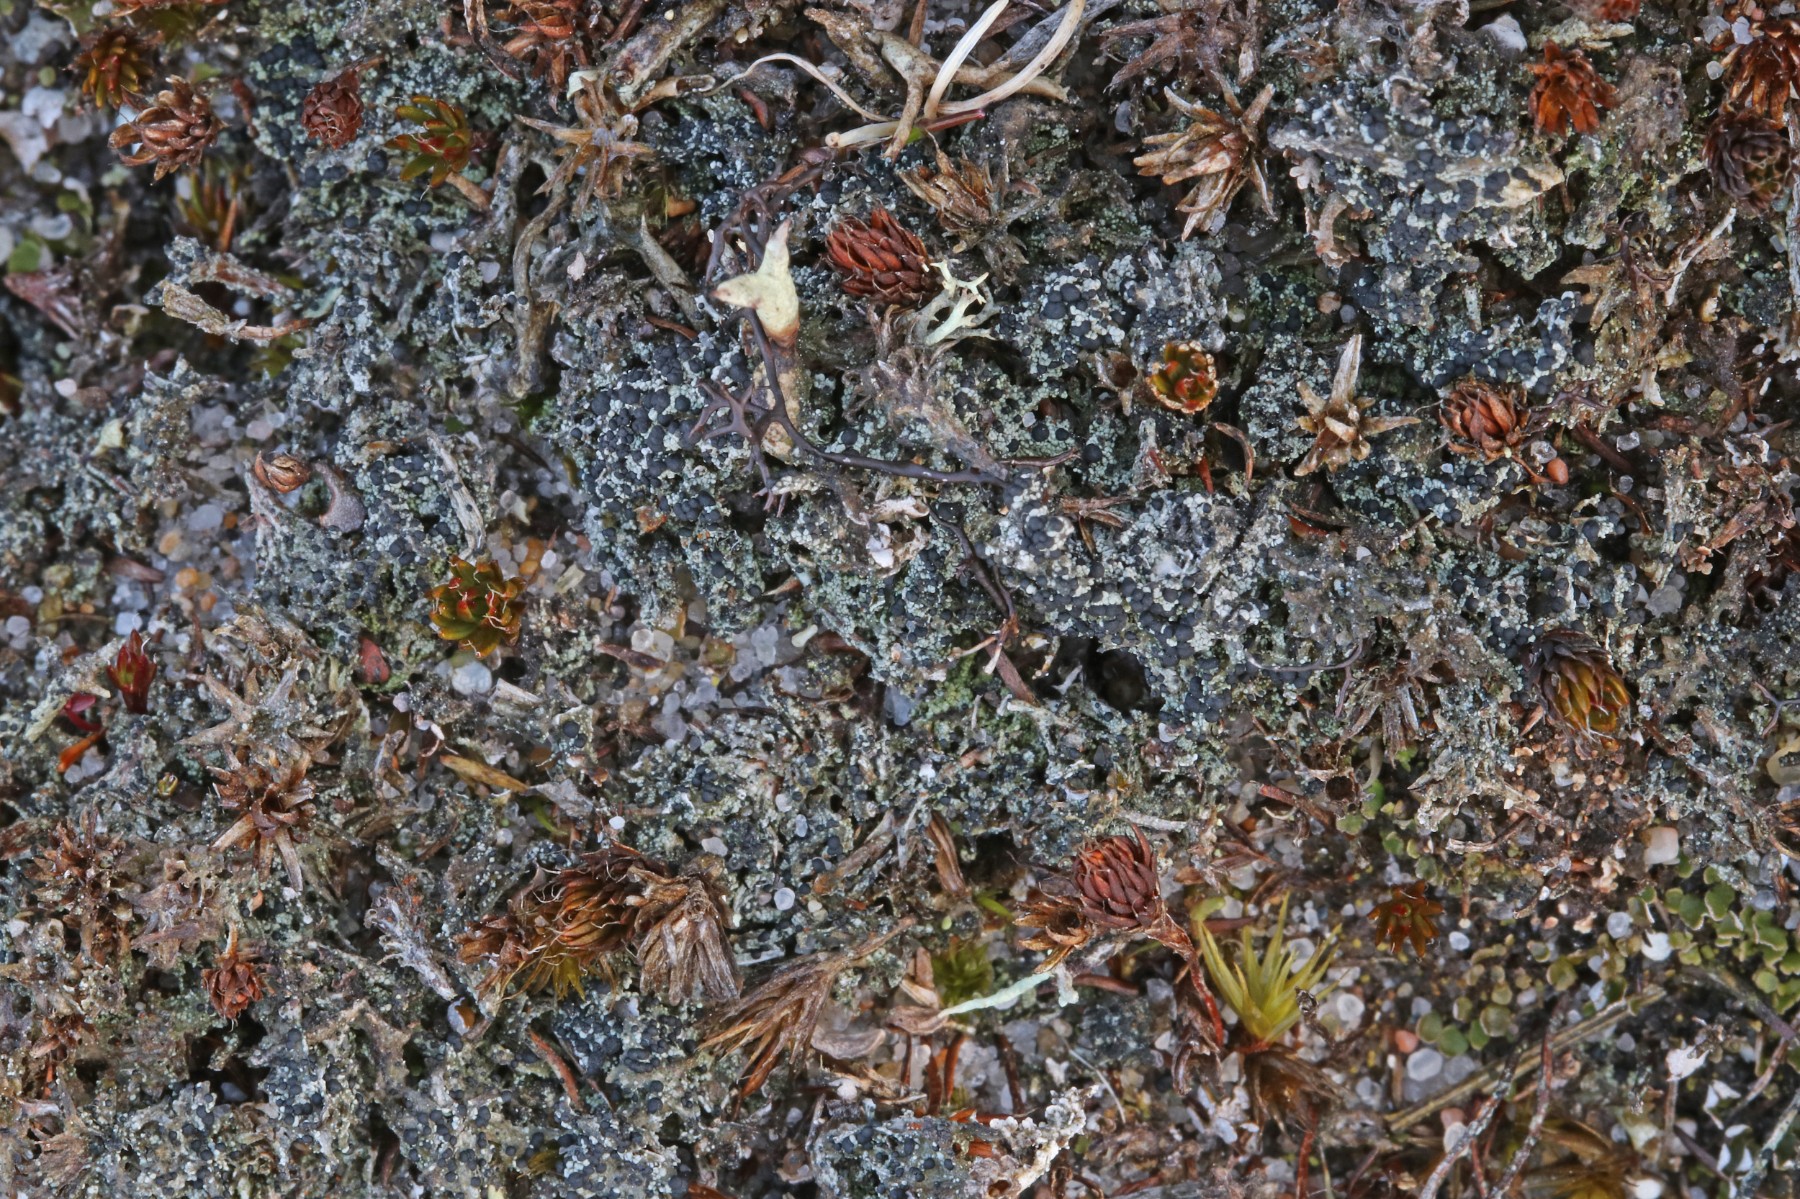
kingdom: Fungi
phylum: Ascomycota
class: Lecanoromycetes
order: Lecanorales
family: Byssolomataceae
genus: Micarea
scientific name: Micarea lignaria
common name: tørve-knaplav
